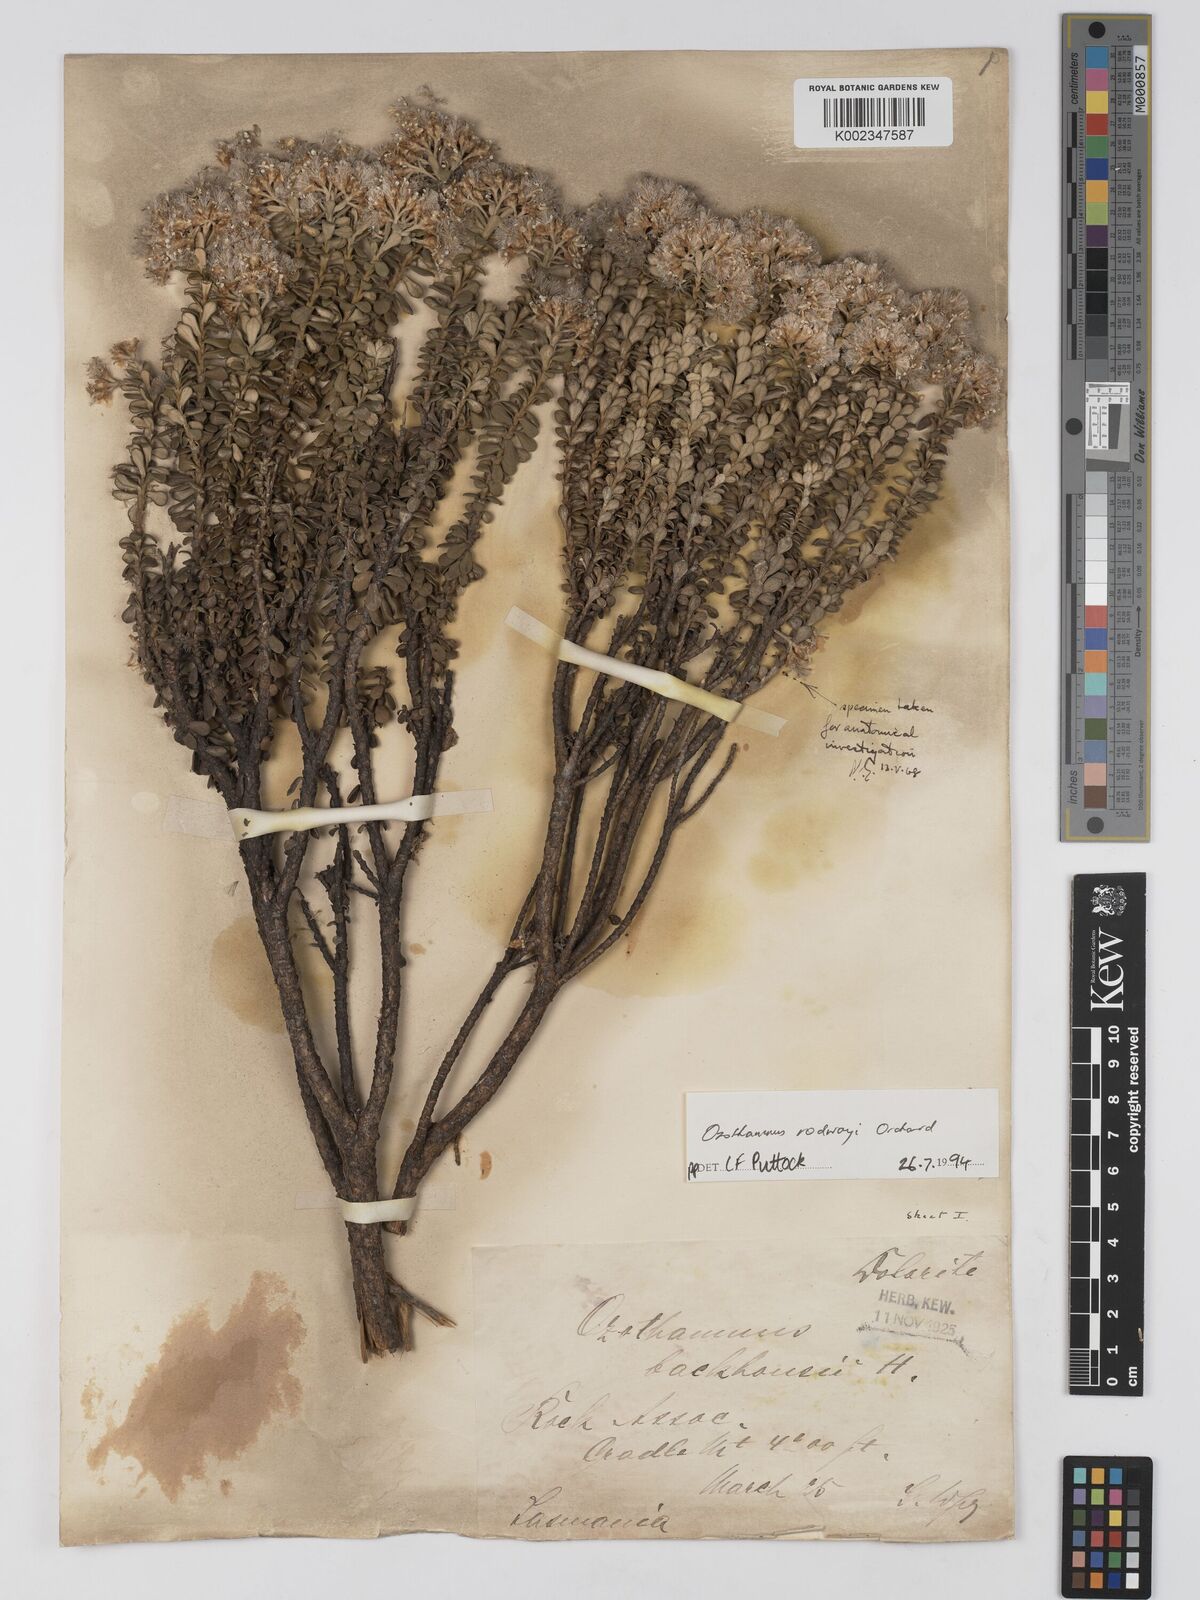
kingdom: Plantae
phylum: Tracheophyta
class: Magnoliopsida
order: Asterales
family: Asteraceae
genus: Ozothamnus
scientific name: Ozothamnus rodwayi
